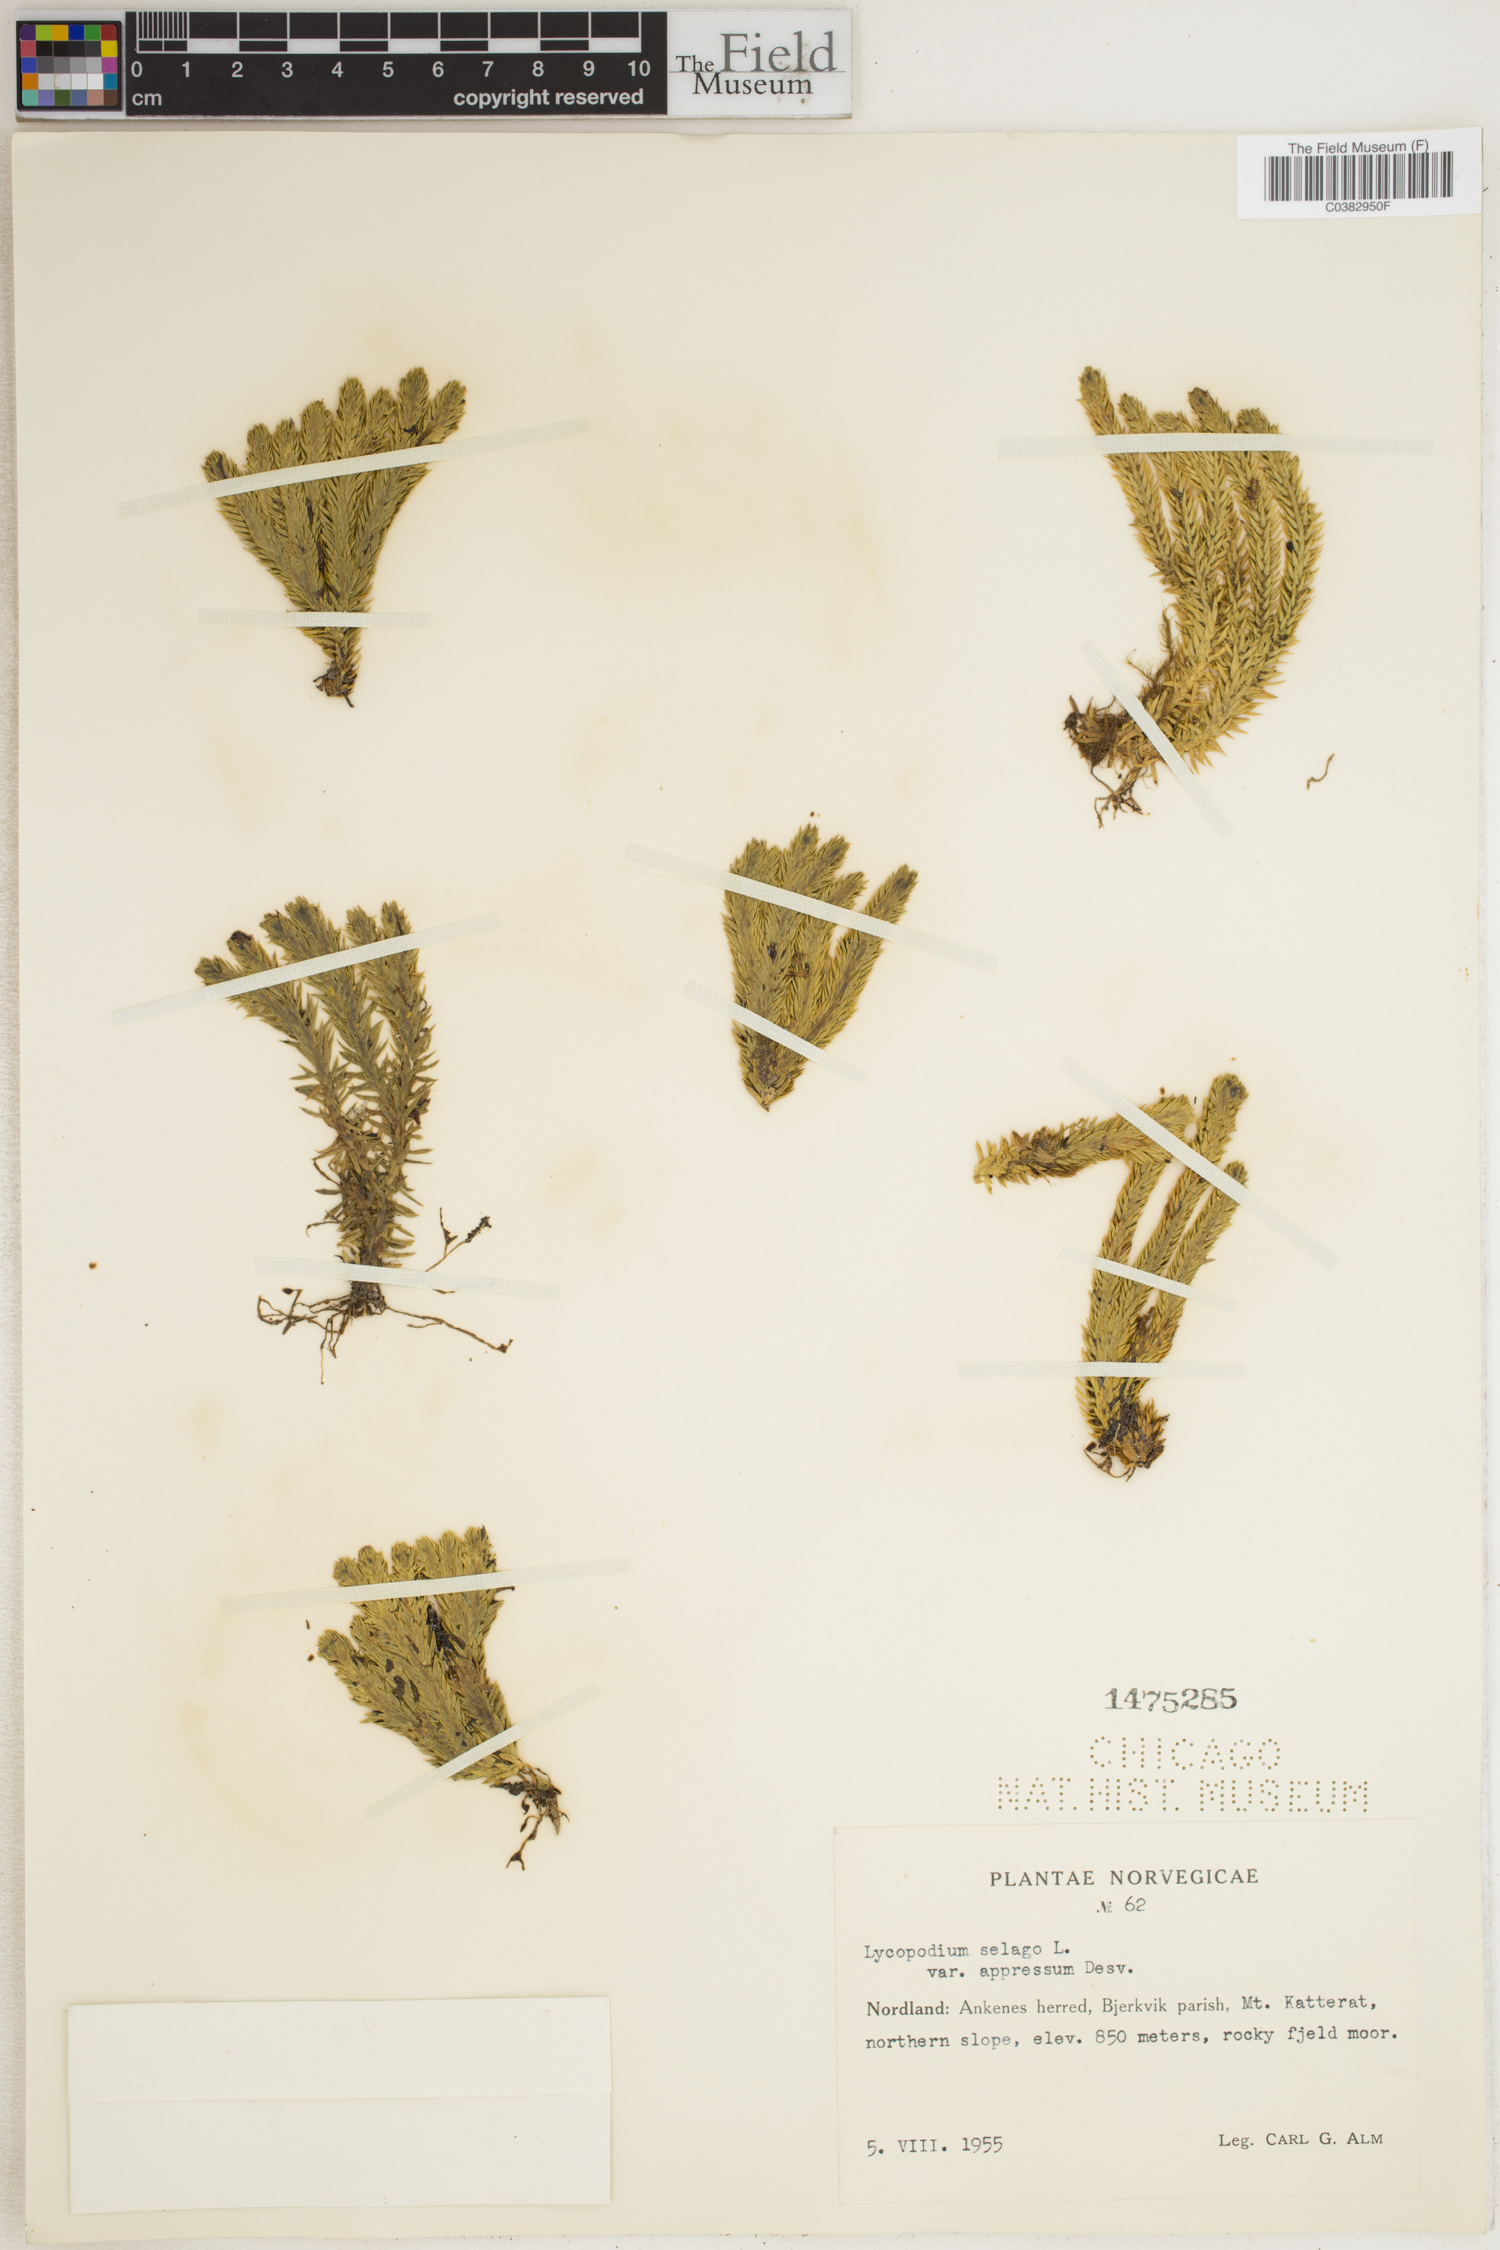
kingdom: Plantae
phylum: Tracheophyta
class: Lycopodiopsida
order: Lycopodiales
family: Lycopodiaceae
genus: Huperzia
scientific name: Huperzia selago
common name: Northern firmoss
